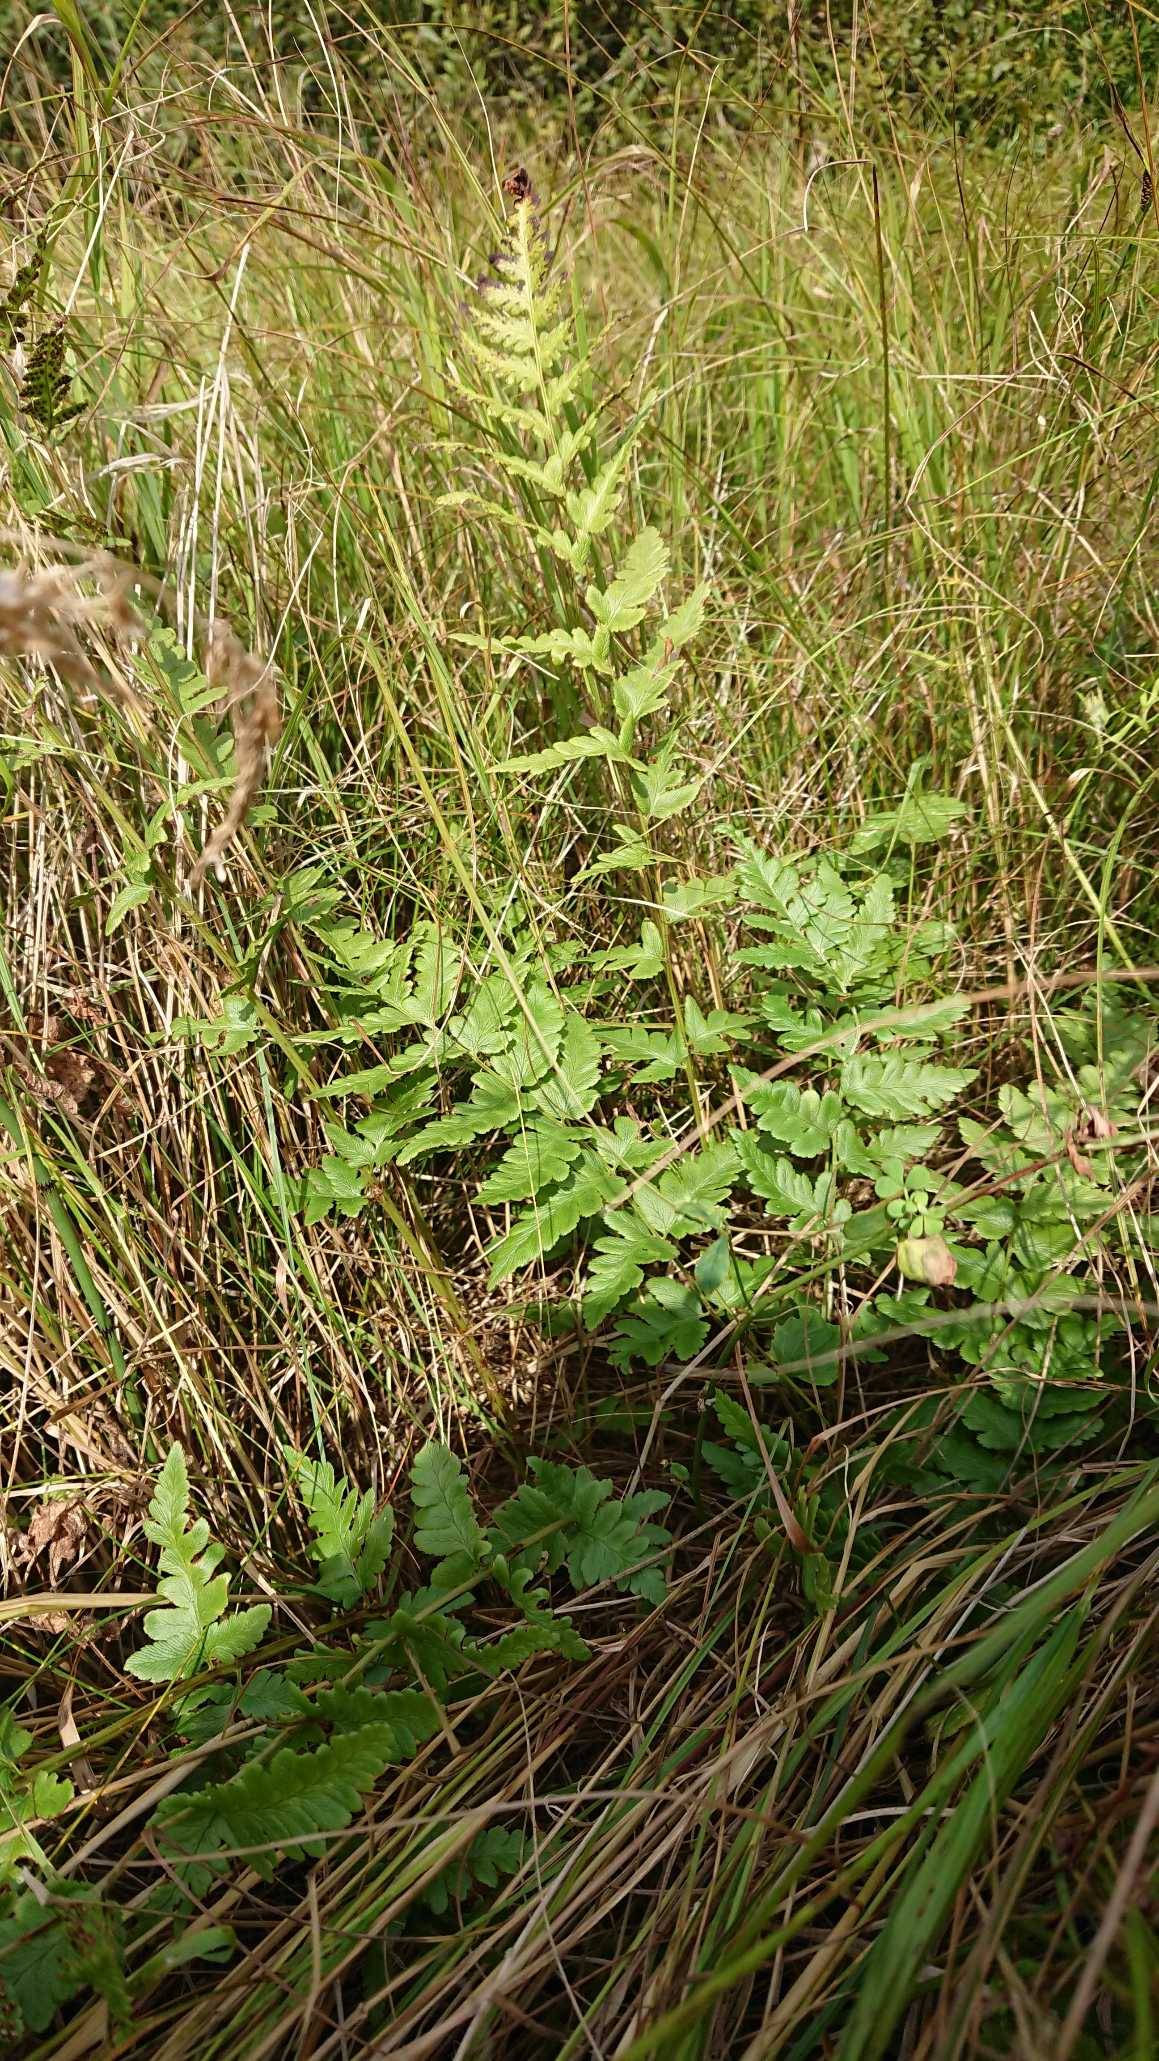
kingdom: Plantae
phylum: Tracheophyta
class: Polypodiopsida
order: Polypodiales
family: Dryopteridaceae
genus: Dryopteris
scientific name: Dryopteris cristata
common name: Butfinnet mangeløv
